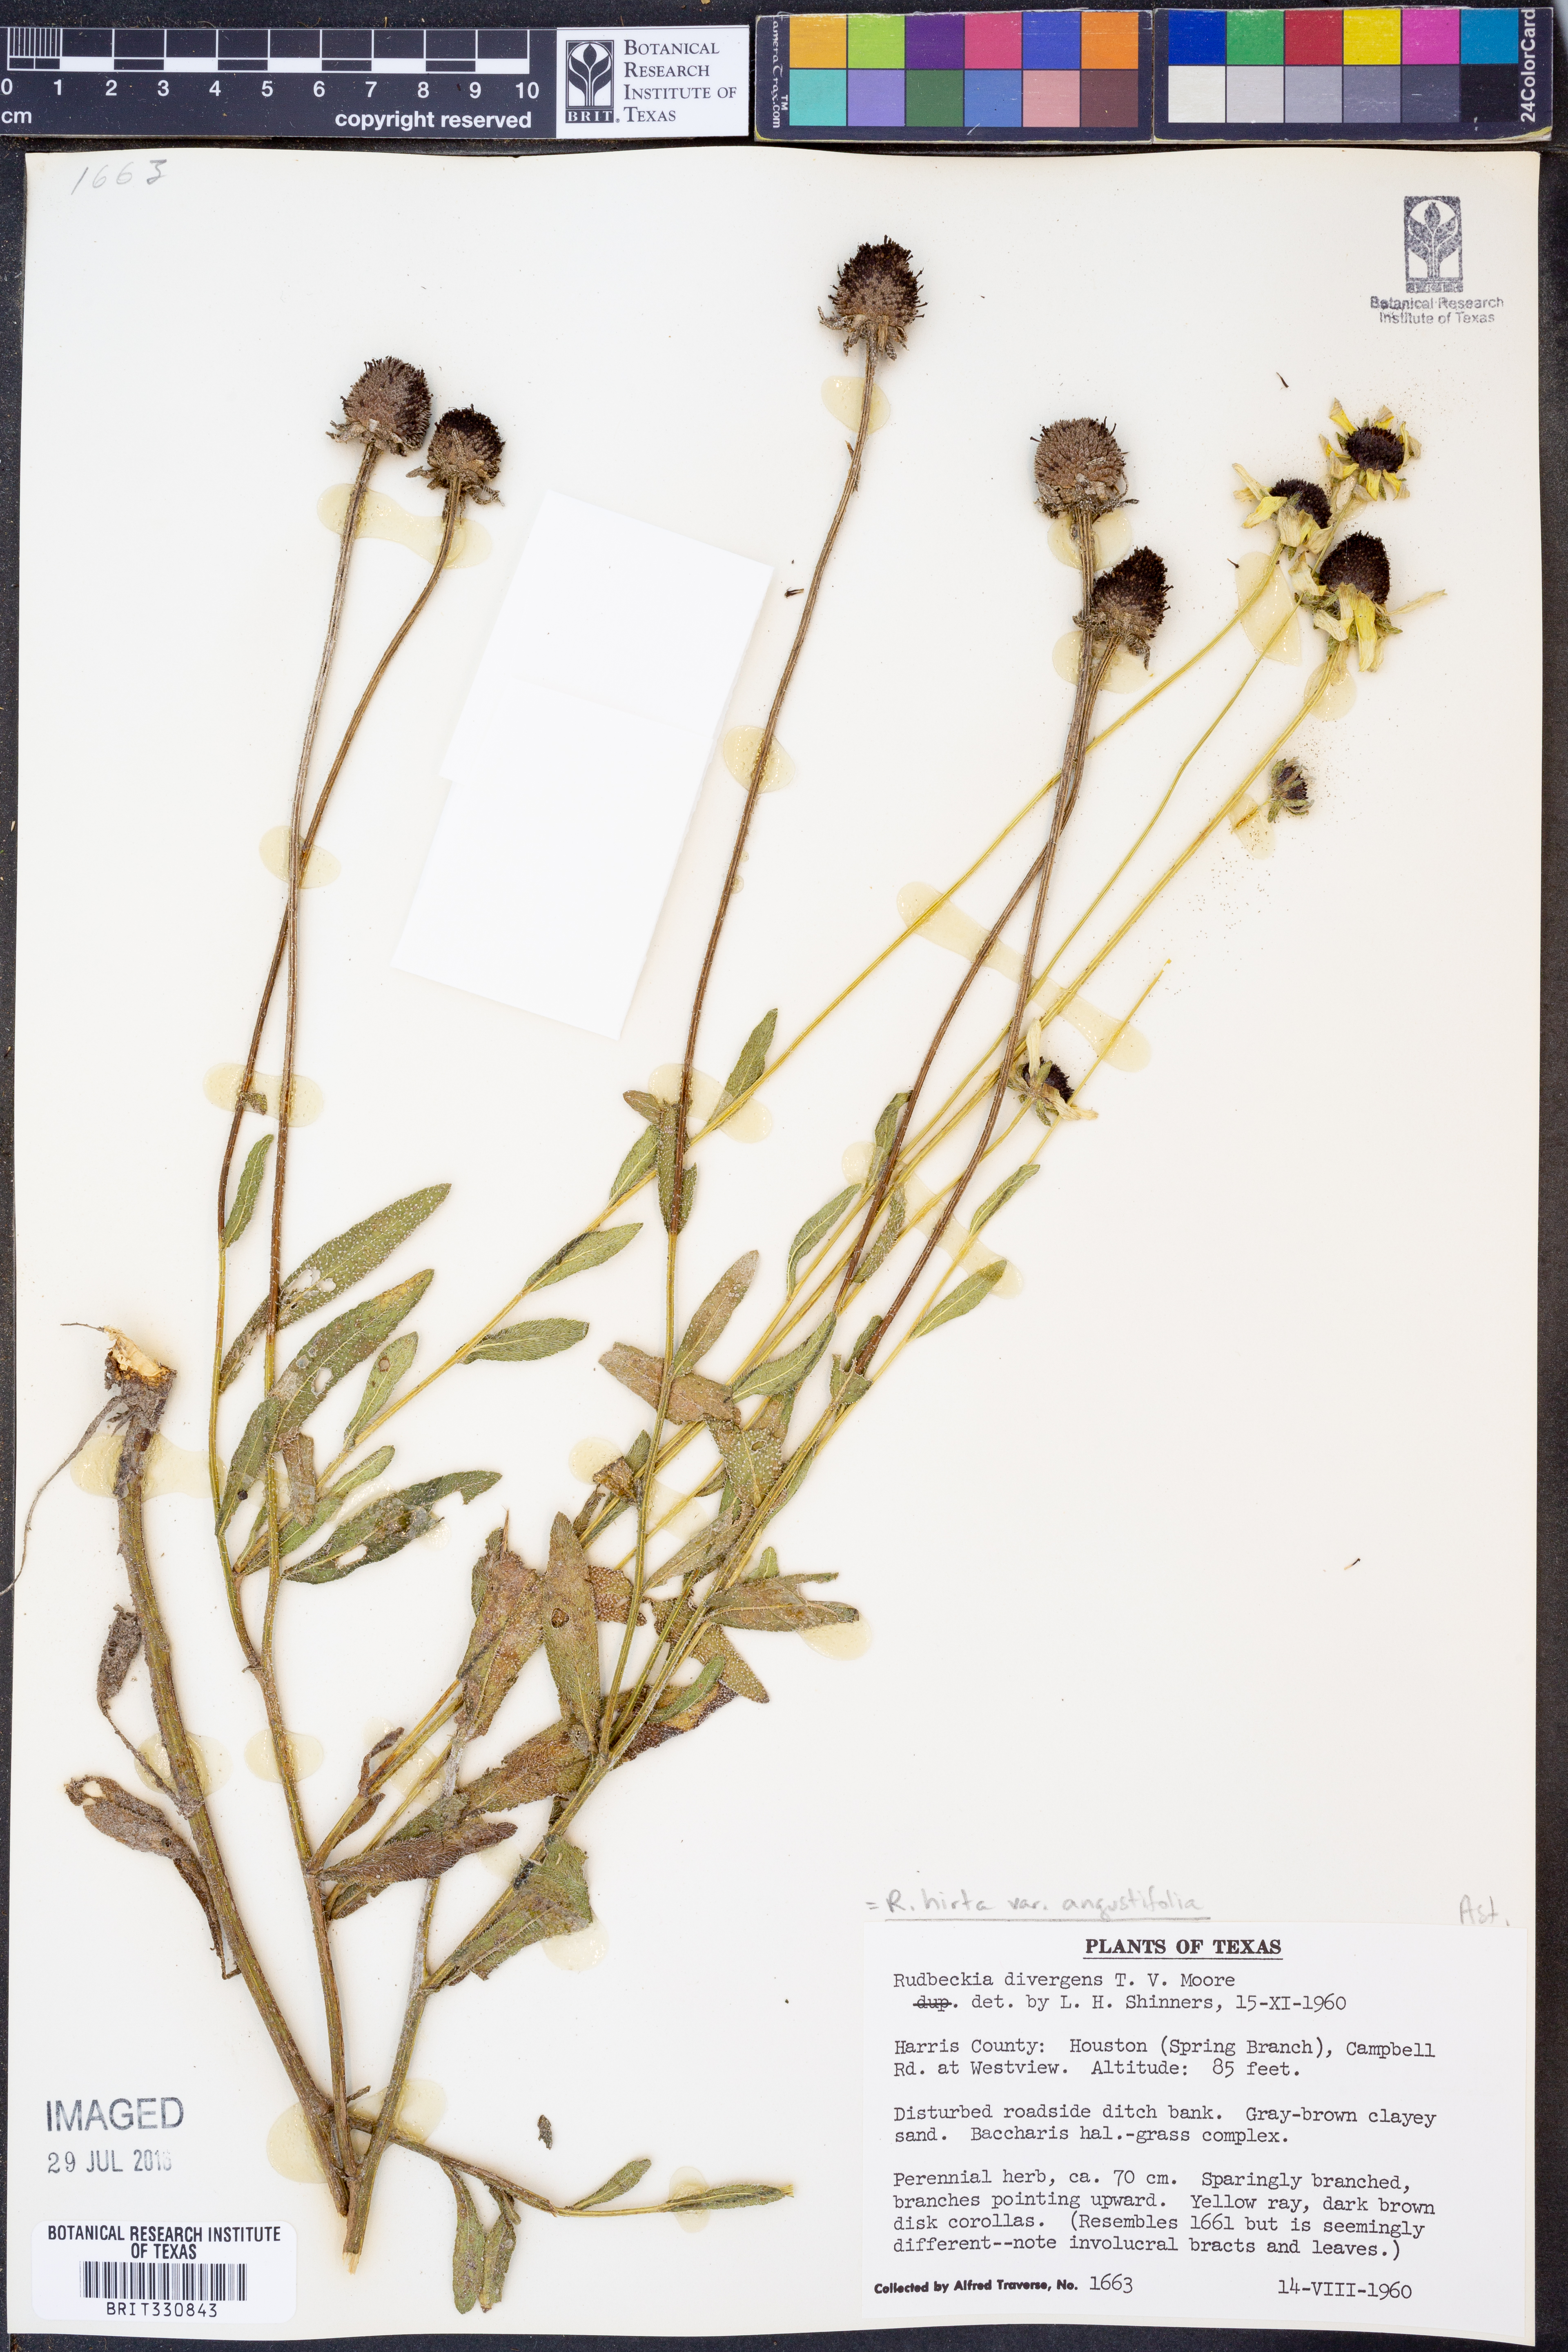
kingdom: Plantae
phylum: Tracheophyta
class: Magnoliopsida
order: Asterales
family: Asteraceae
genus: Rudbeckia
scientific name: Rudbeckia hirta
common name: Black-eyed-susan
